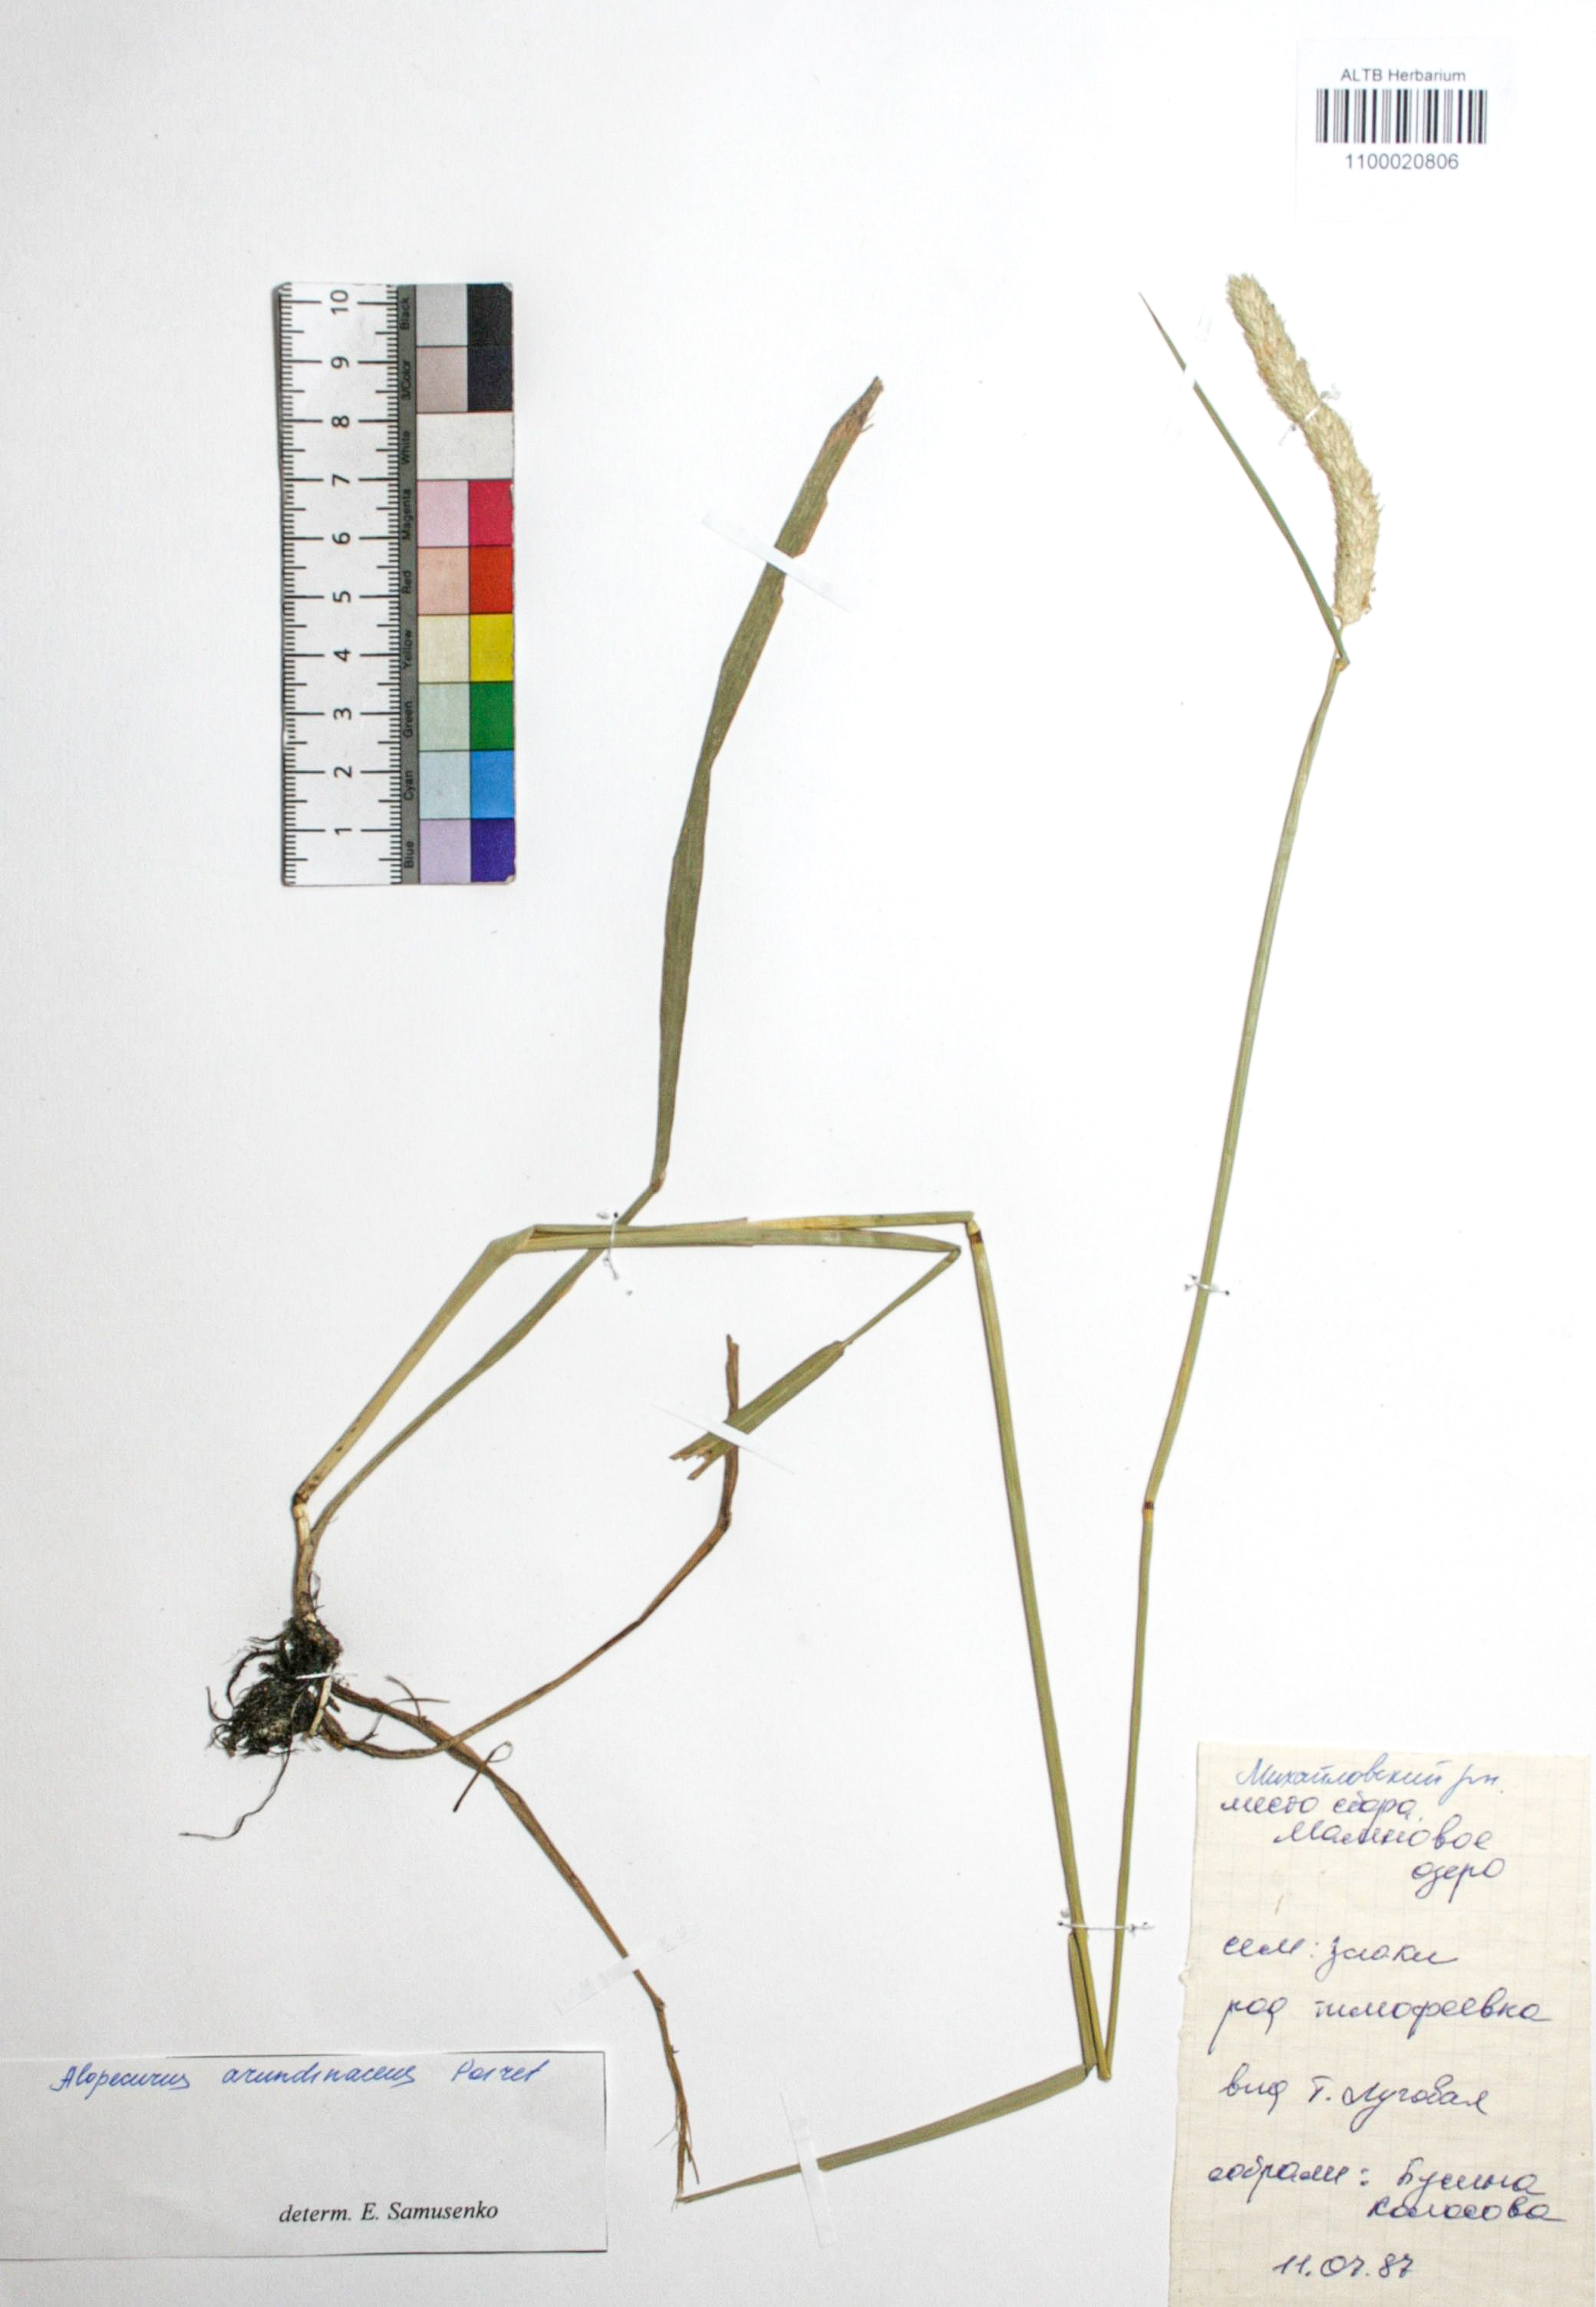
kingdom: Plantae
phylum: Tracheophyta
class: Liliopsida
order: Poales
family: Poaceae
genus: Alopecurus
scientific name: Alopecurus arundinaceus
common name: Creeping meadow foxtail
